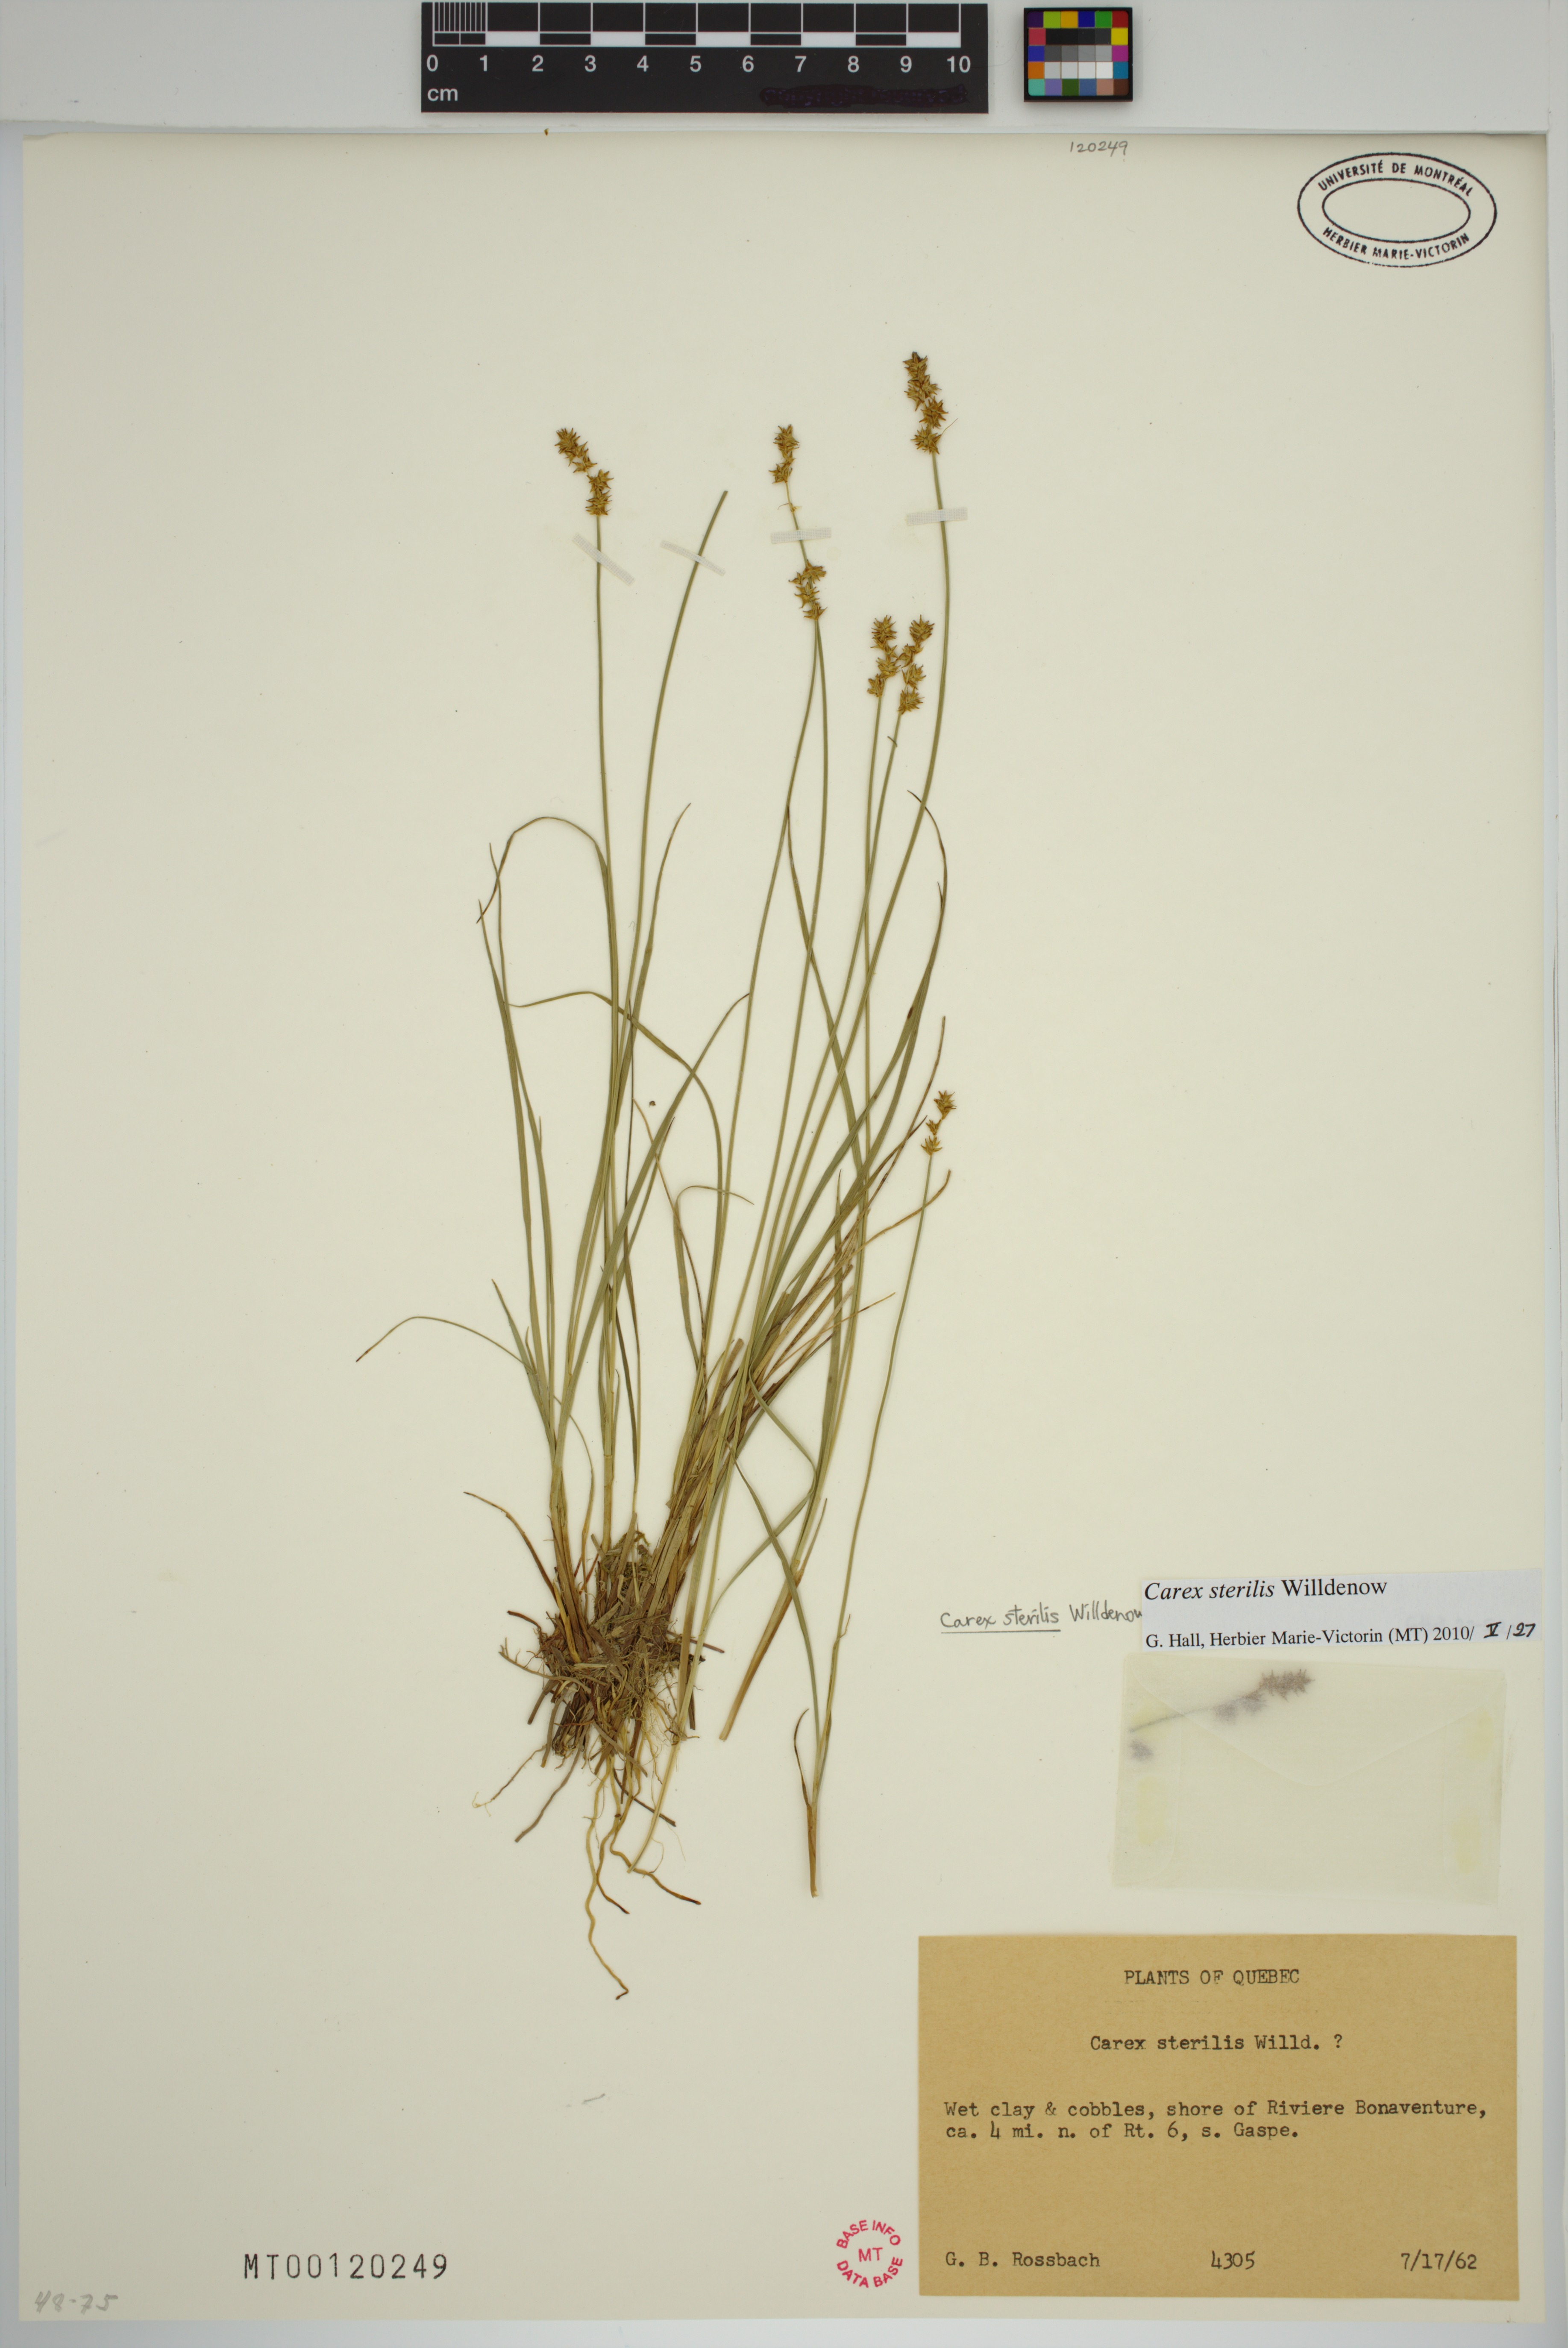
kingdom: Plantae
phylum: Tracheophyta
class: Liliopsida
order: Poales
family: Cyperaceae
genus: Carex
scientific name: Carex sterilis
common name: Dioecious sedge
